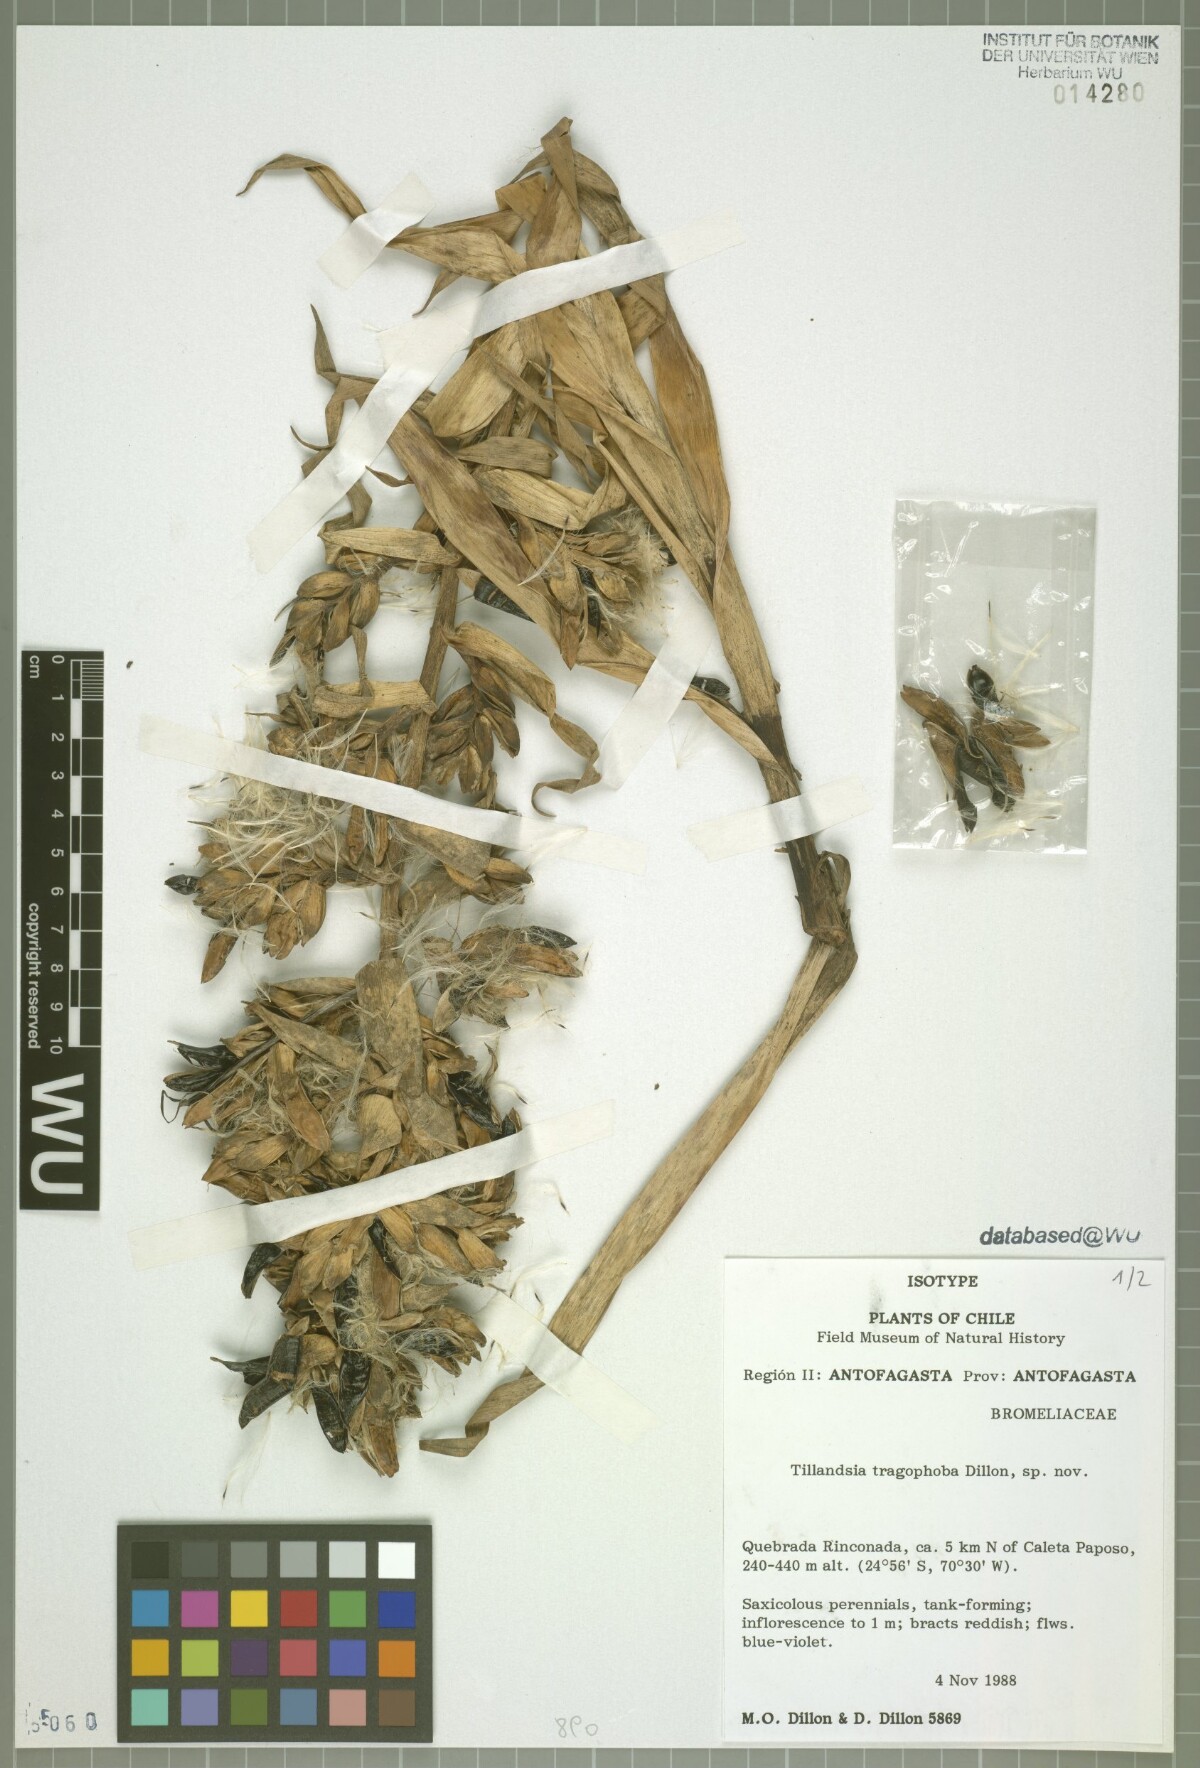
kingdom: Plantae
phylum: Tracheophyta
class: Liliopsida
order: Poales
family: Bromeliaceae
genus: Tillandsia
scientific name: Tillandsia tragophoba
